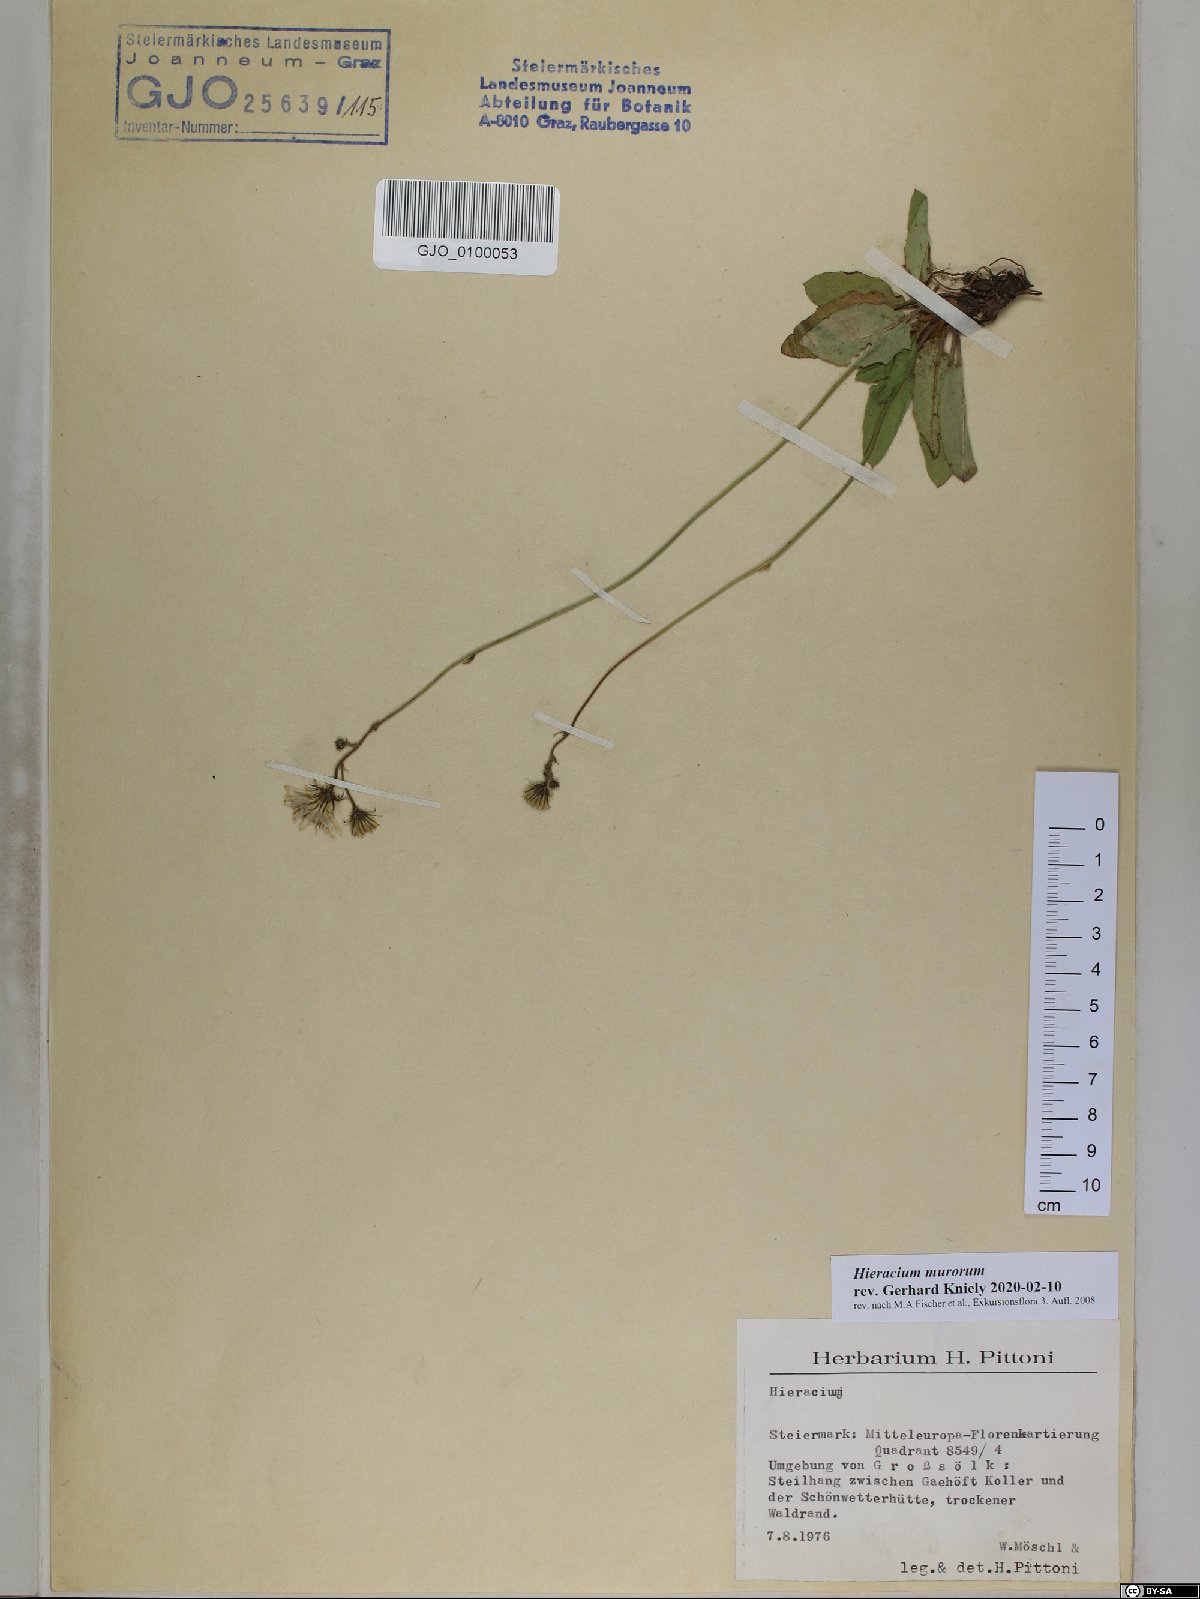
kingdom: Plantae
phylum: Tracheophyta
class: Magnoliopsida
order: Asterales
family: Asteraceae
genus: Hieracium
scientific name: Hieracium murorum
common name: Wall hawkweed
